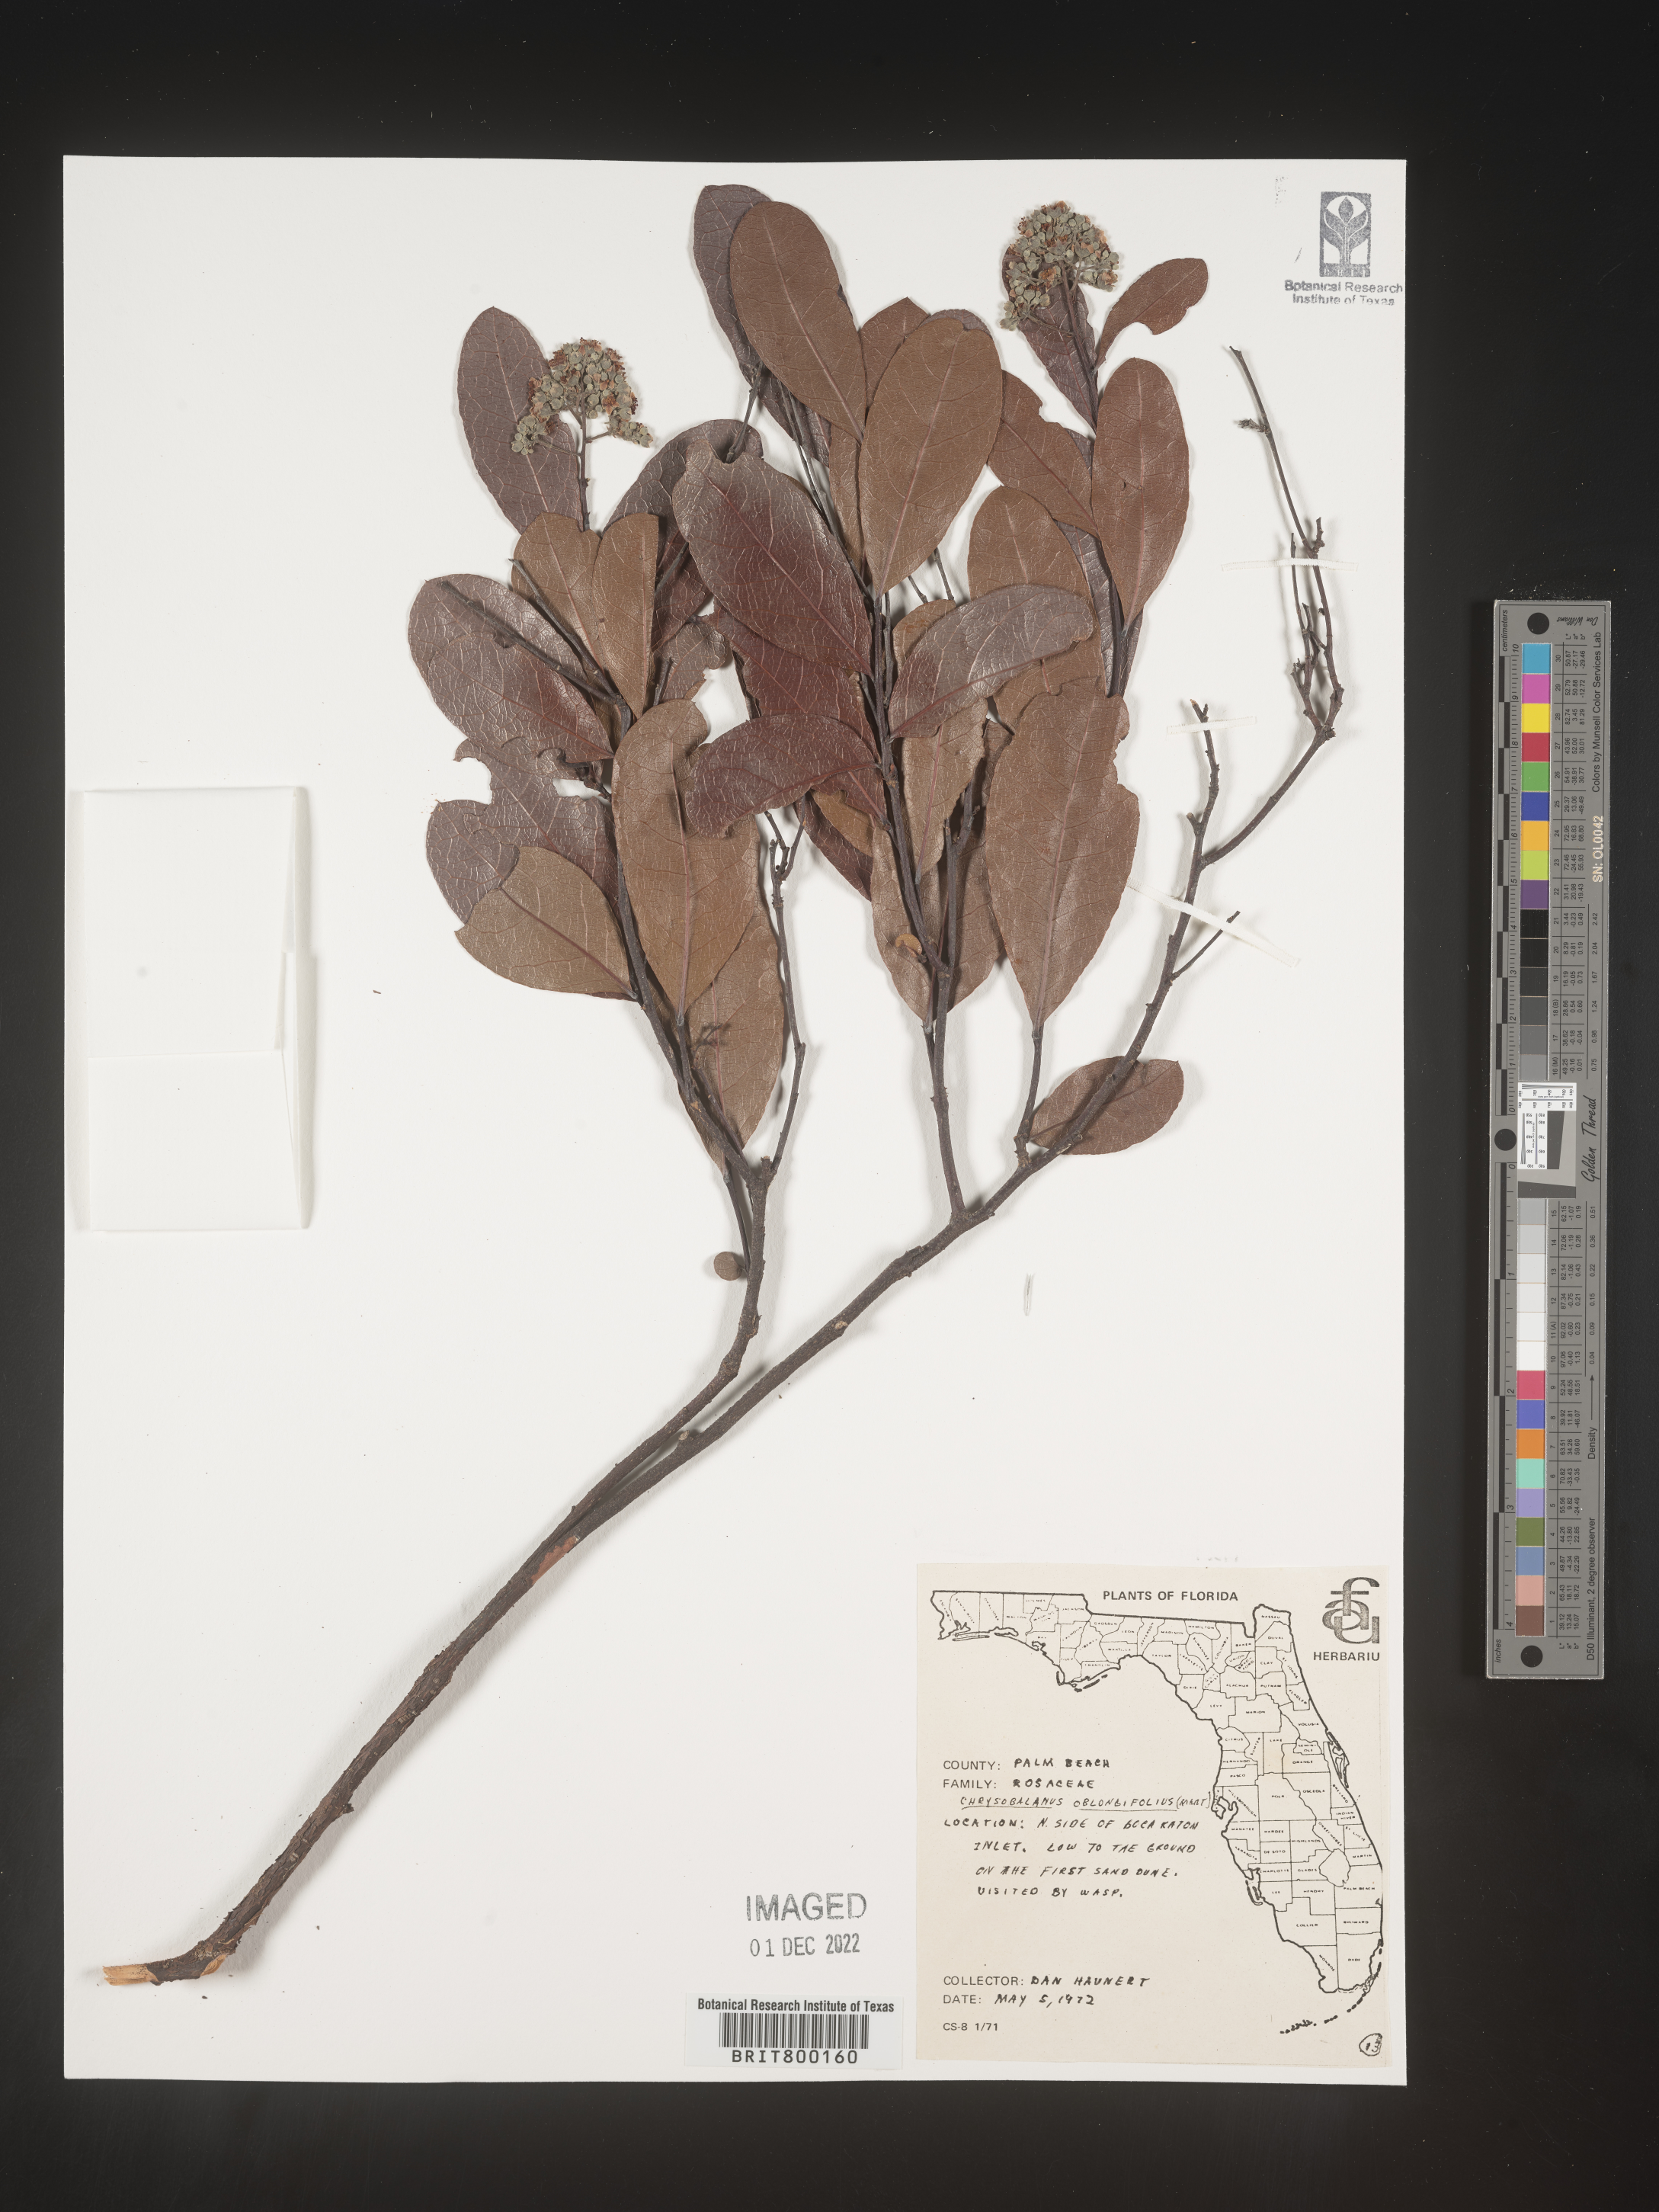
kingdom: Plantae
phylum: Tracheophyta
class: Magnoliopsida
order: Malpighiales
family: Chrysobalanaceae
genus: Geobalanus
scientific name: Geobalanus oblongifolius
